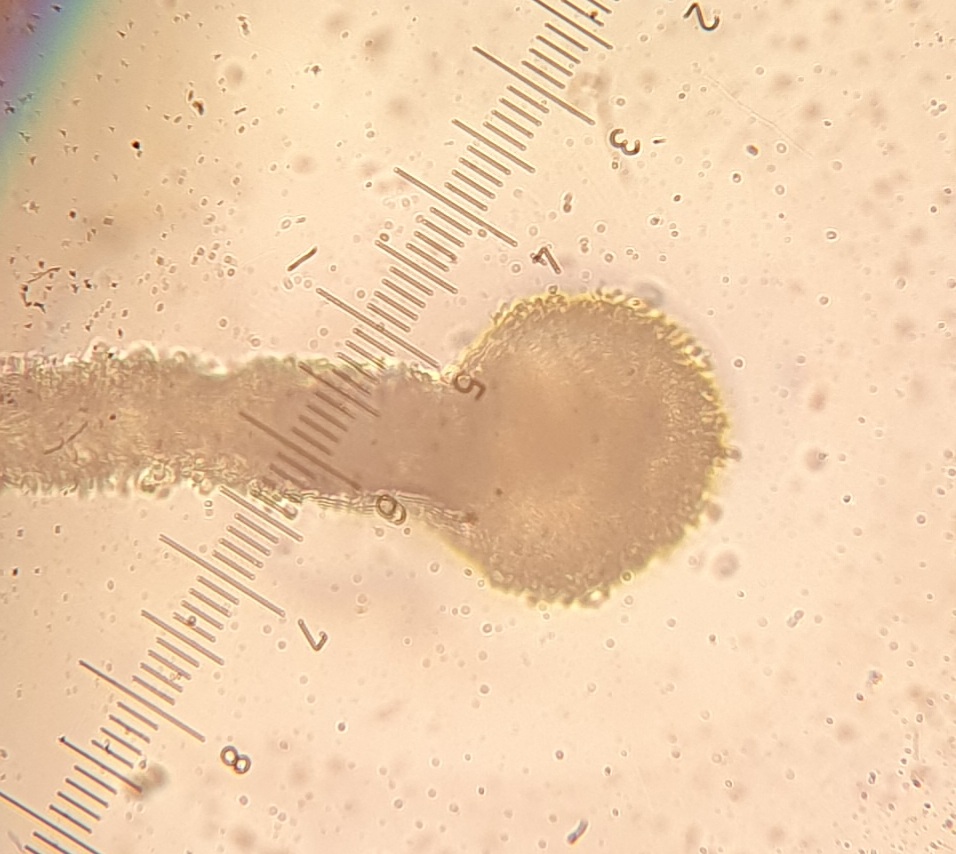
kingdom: Fungi
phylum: Ascomycota
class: Sordariomycetes
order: Hypocreales
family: Ophiocordycipitaceae
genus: Polycephalomyces
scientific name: Polycephalomyces tomentosus
